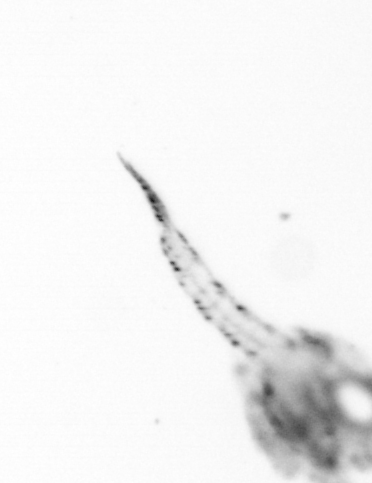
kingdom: Animalia
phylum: Arthropoda
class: Copepoda
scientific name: Copepoda
